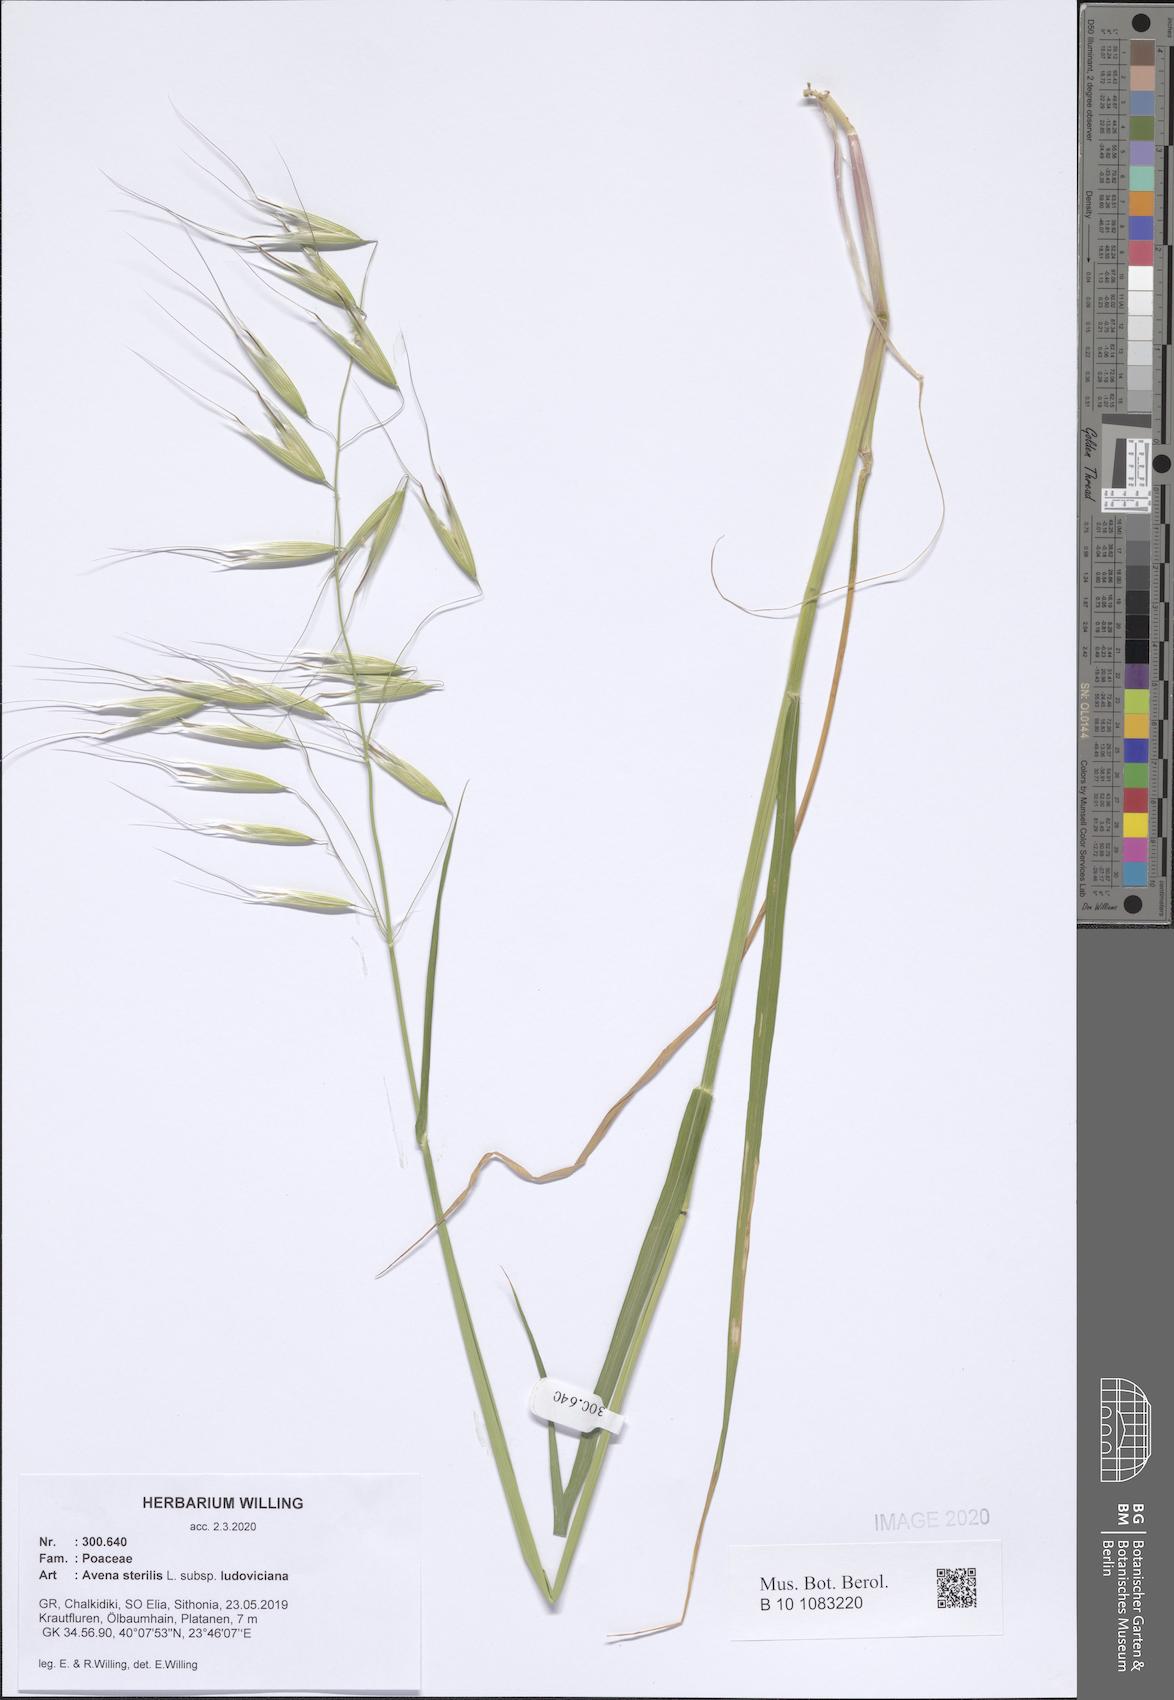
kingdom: Plantae
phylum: Tracheophyta
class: Liliopsida
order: Poales
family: Poaceae
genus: Avena
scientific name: Avena sterilis
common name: Animated oat
